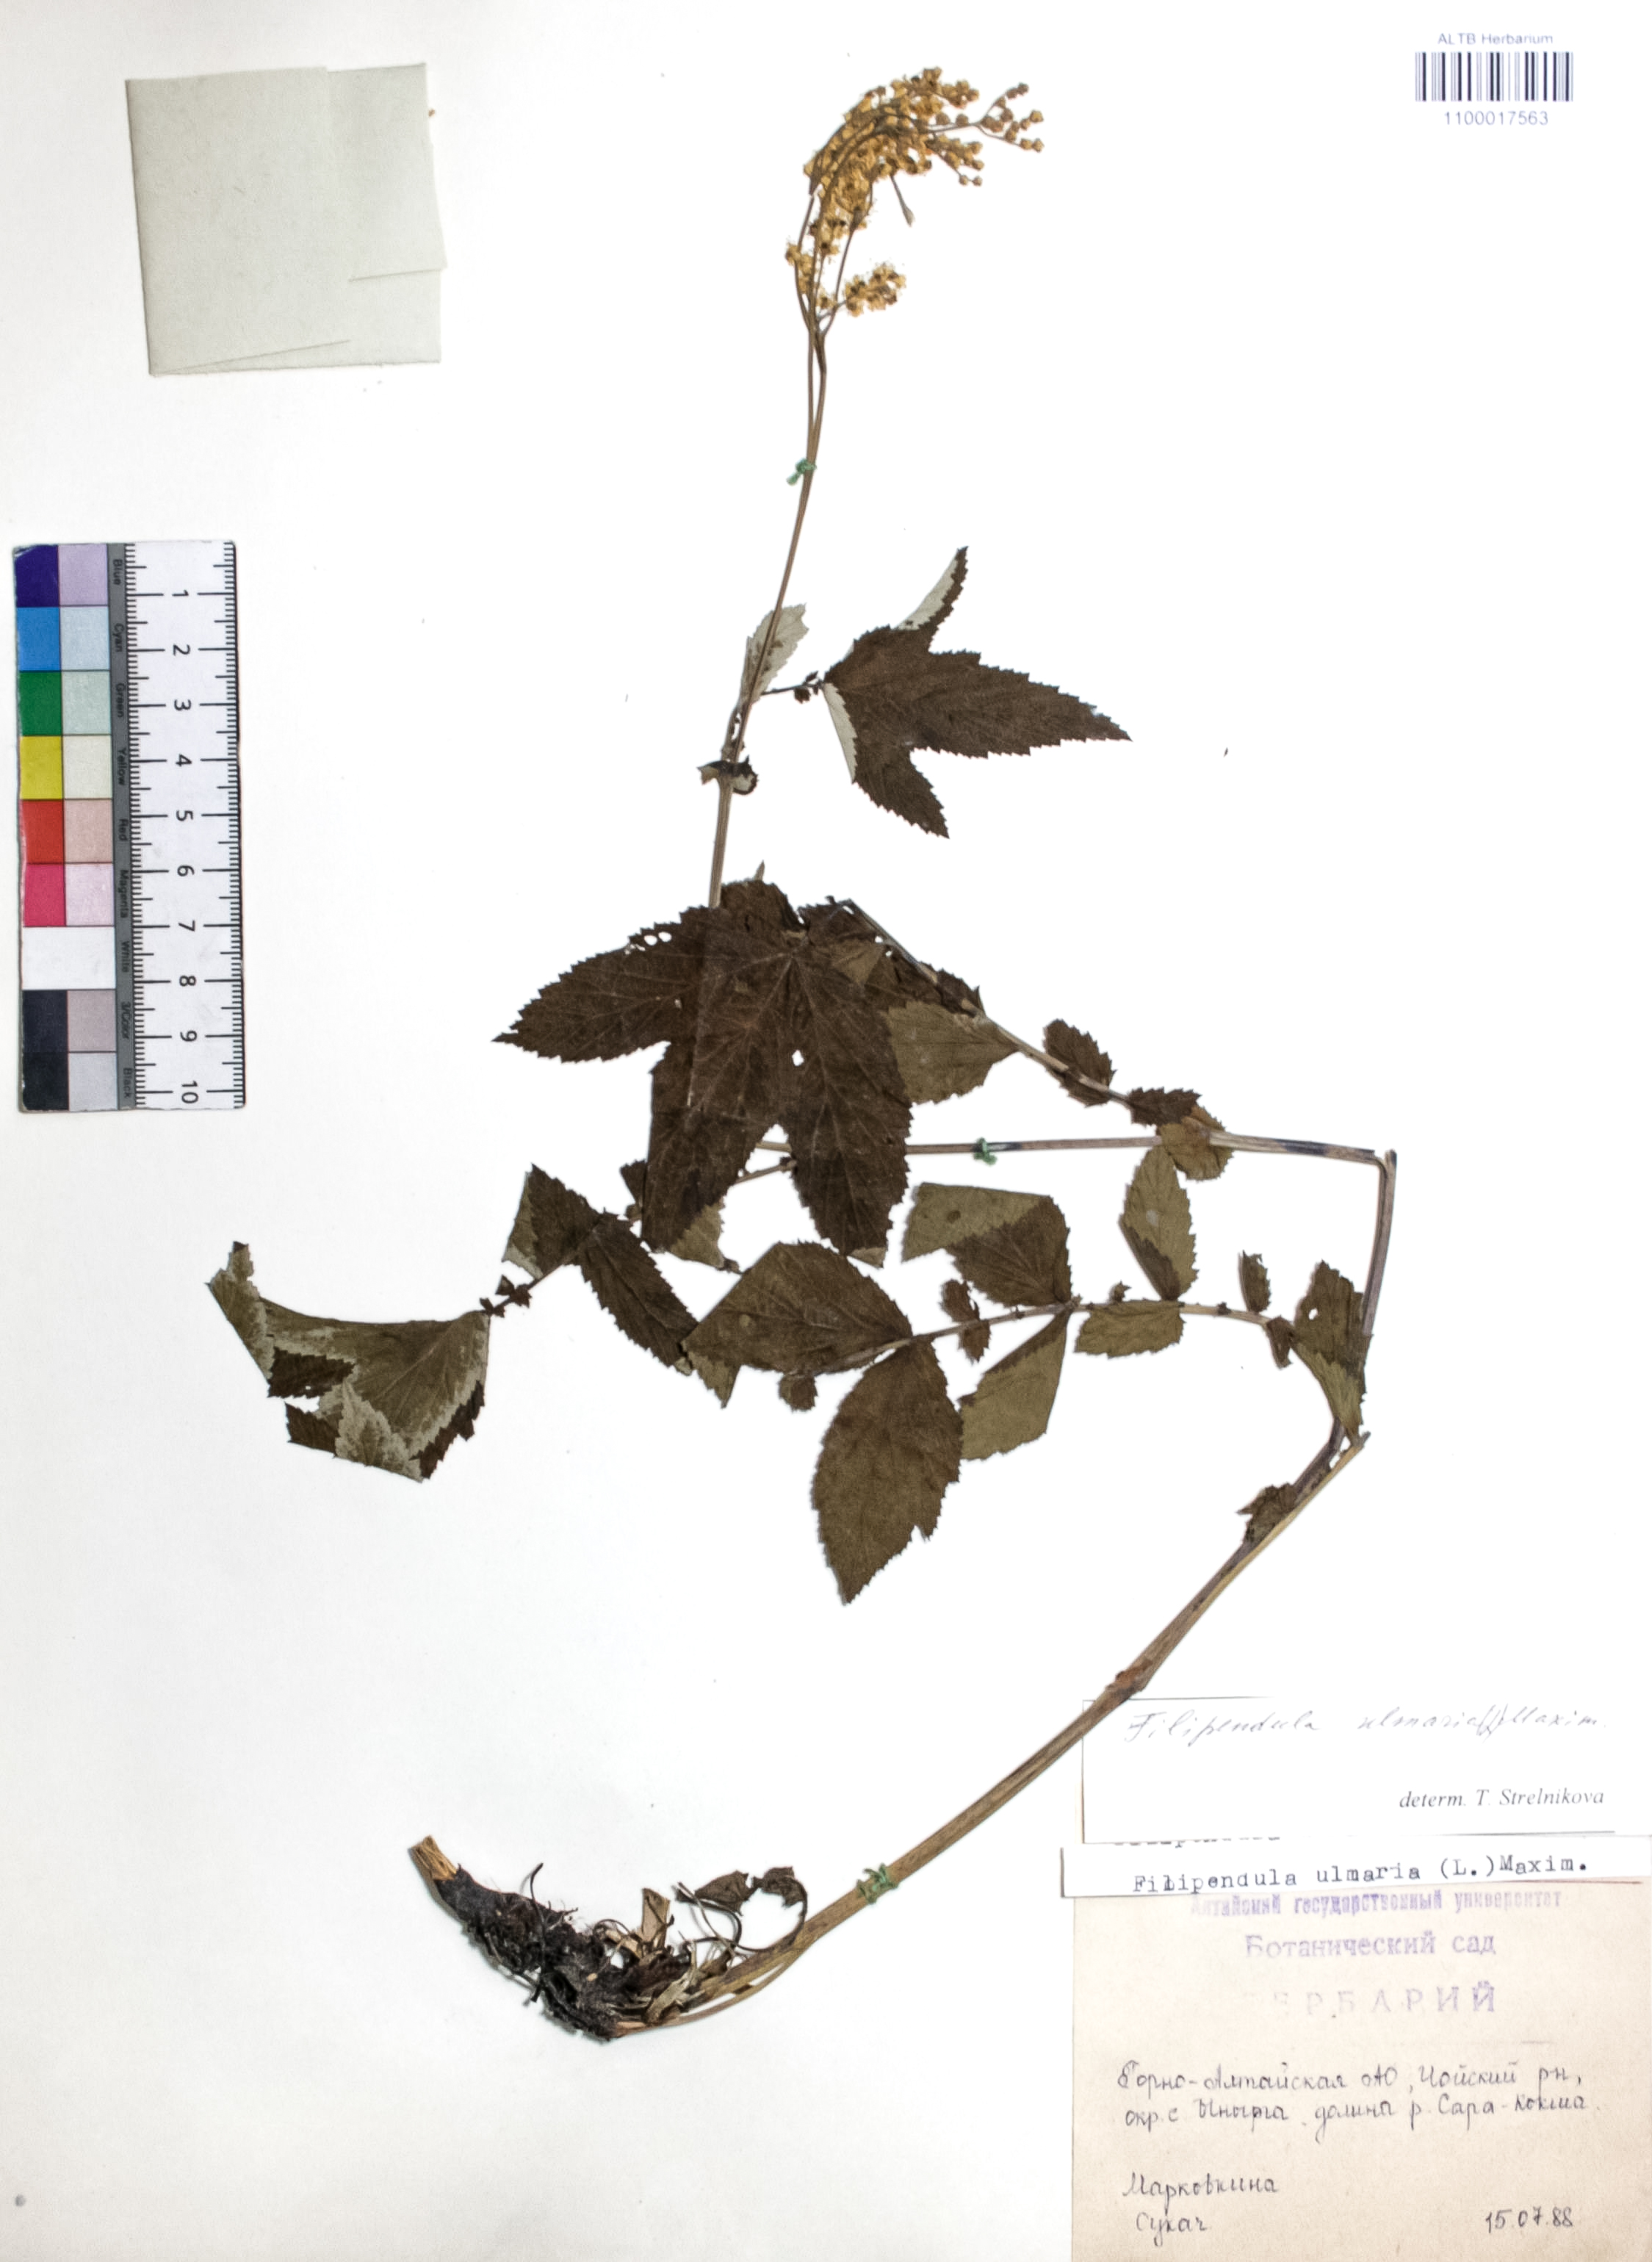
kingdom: Plantae
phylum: Tracheophyta
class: Magnoliopsida
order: Rosales
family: Rosaceae
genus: Filipendula
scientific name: Filipendula ulmaria
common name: Meadowsweet
